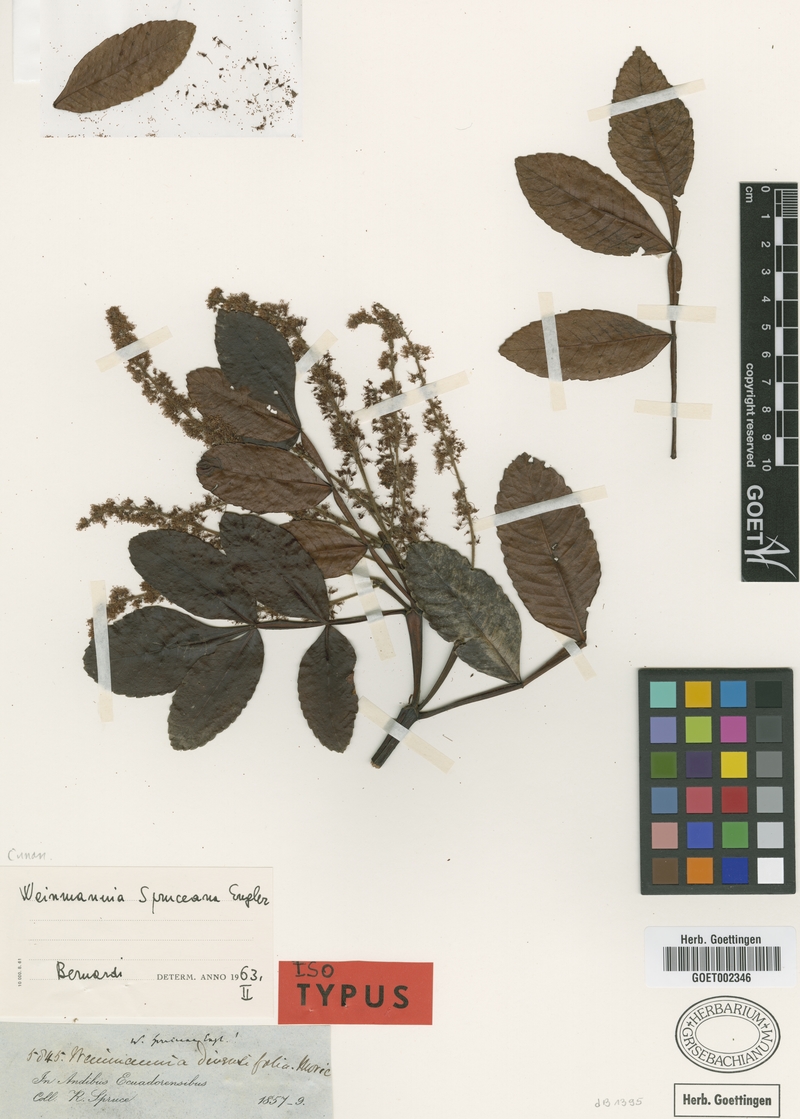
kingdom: Plantae
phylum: Tracheophyta
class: Magnoliopsida
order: Oxalidales
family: Cunoniaceae
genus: Weinmannia
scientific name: Weinmannia spruceana
